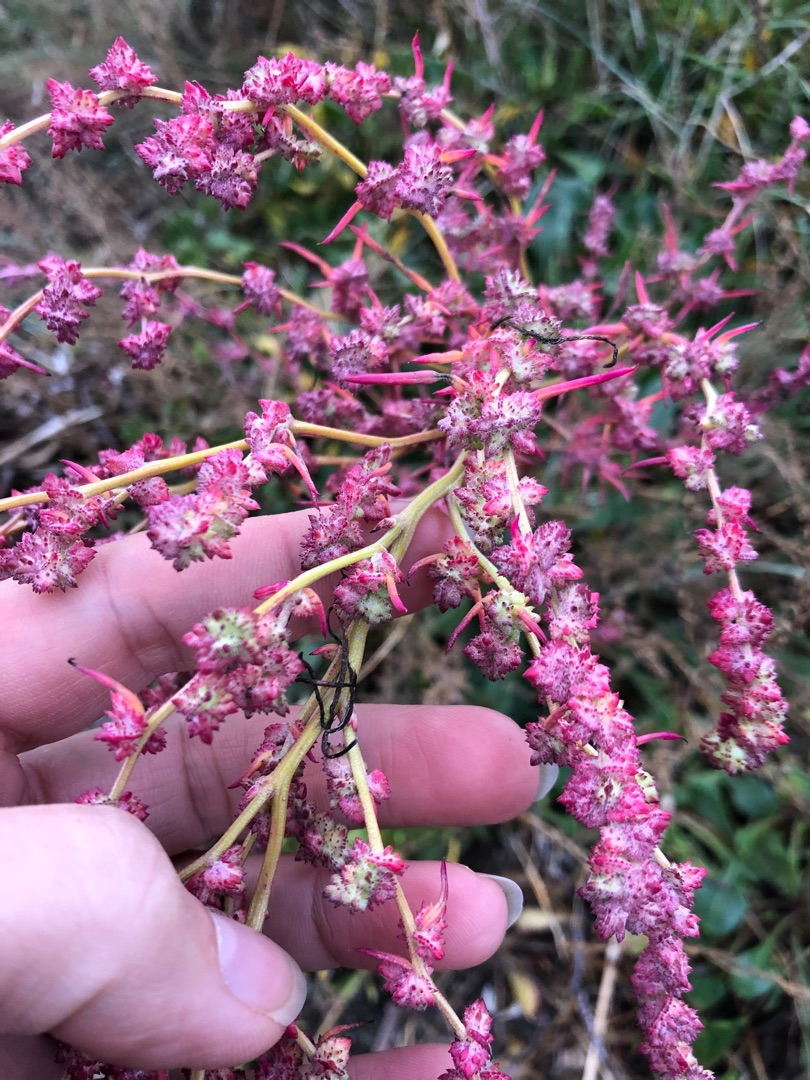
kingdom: Plantae
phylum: Tracheophyta
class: Magnoliopsida
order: Caryophyllales
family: Amaranthaceae
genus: Atriplex
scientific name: Atriplex prostrata
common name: Spyd-mælde
